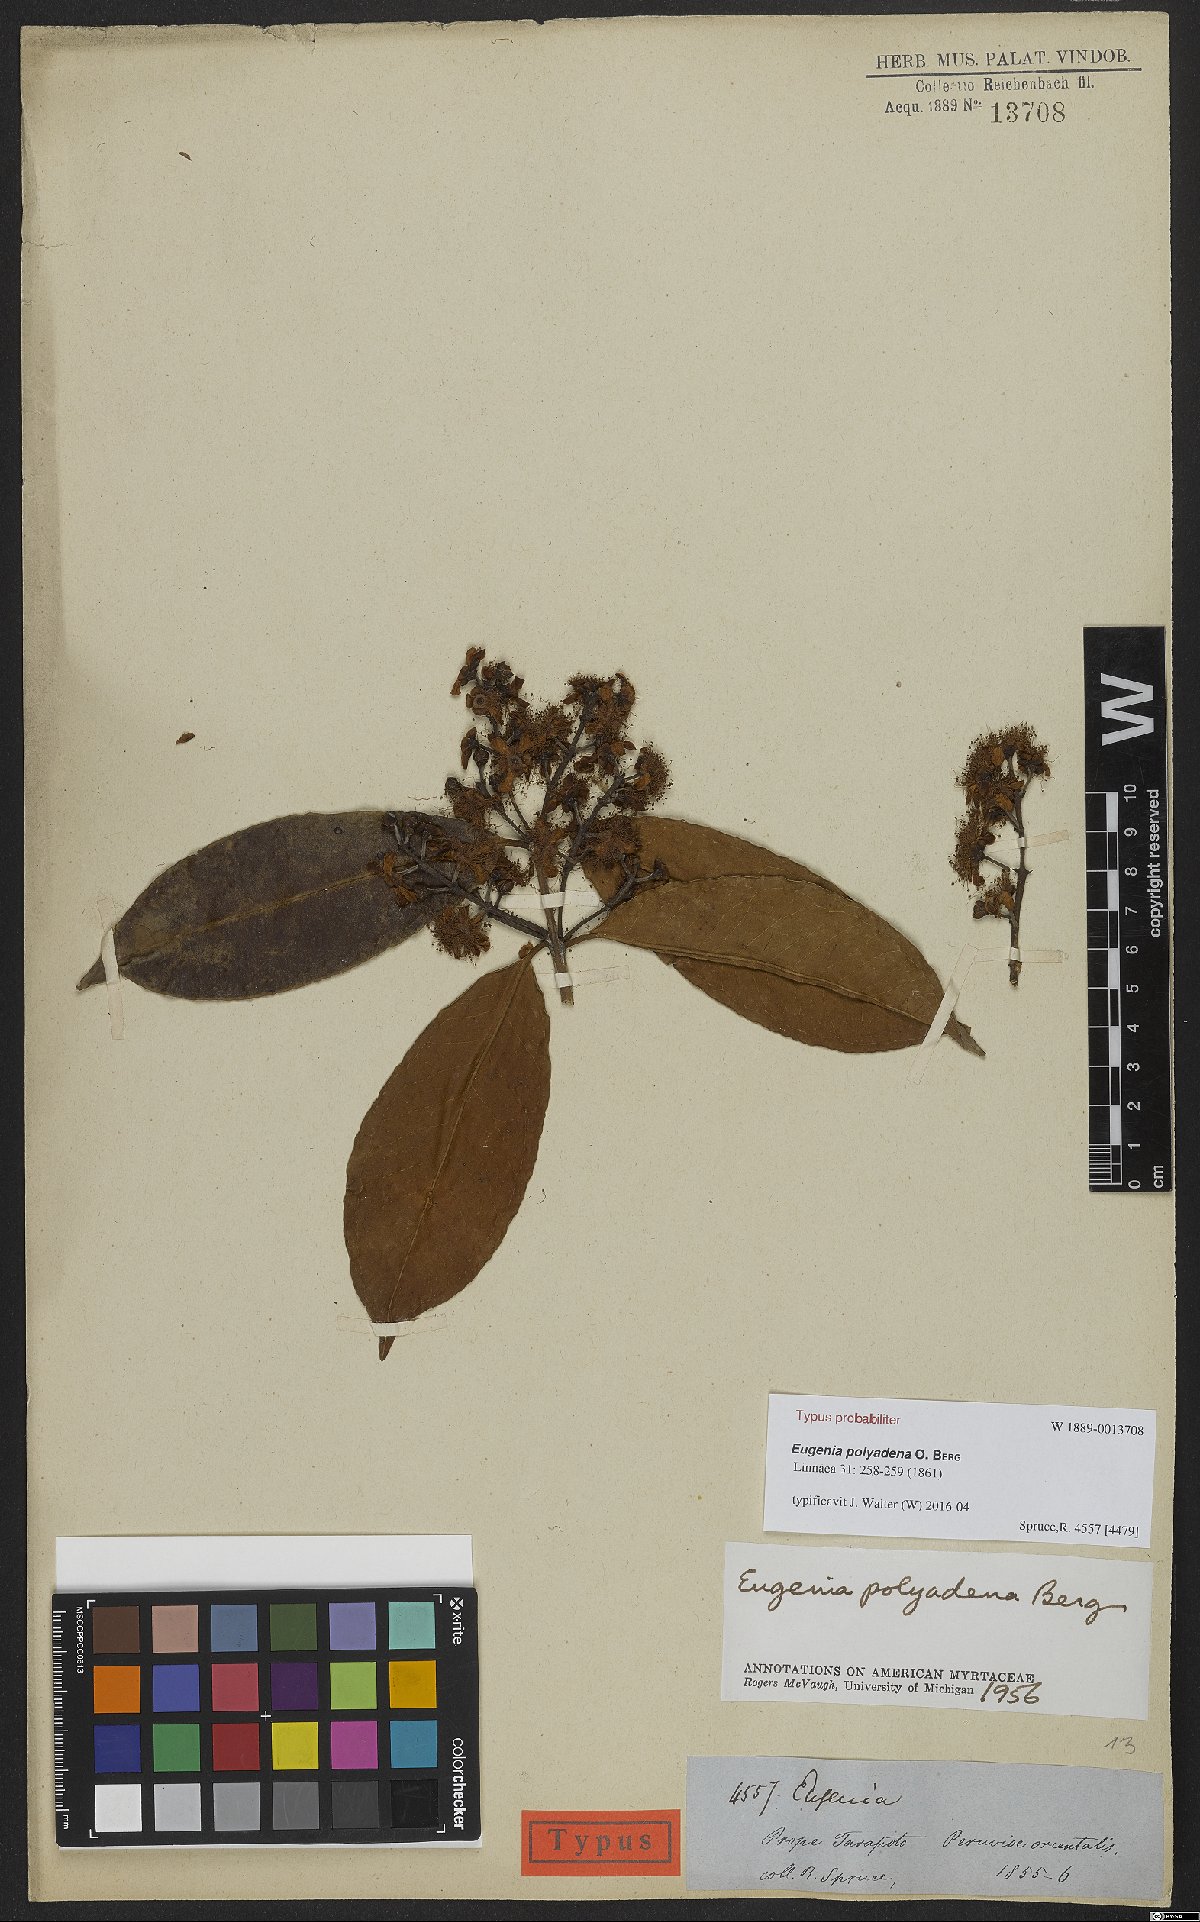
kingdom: Plantae
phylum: Tracheophyta
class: Magnoliopsida
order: Myrtales
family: Myrtaceae
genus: Eugenia
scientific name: Eugenia polyadena
